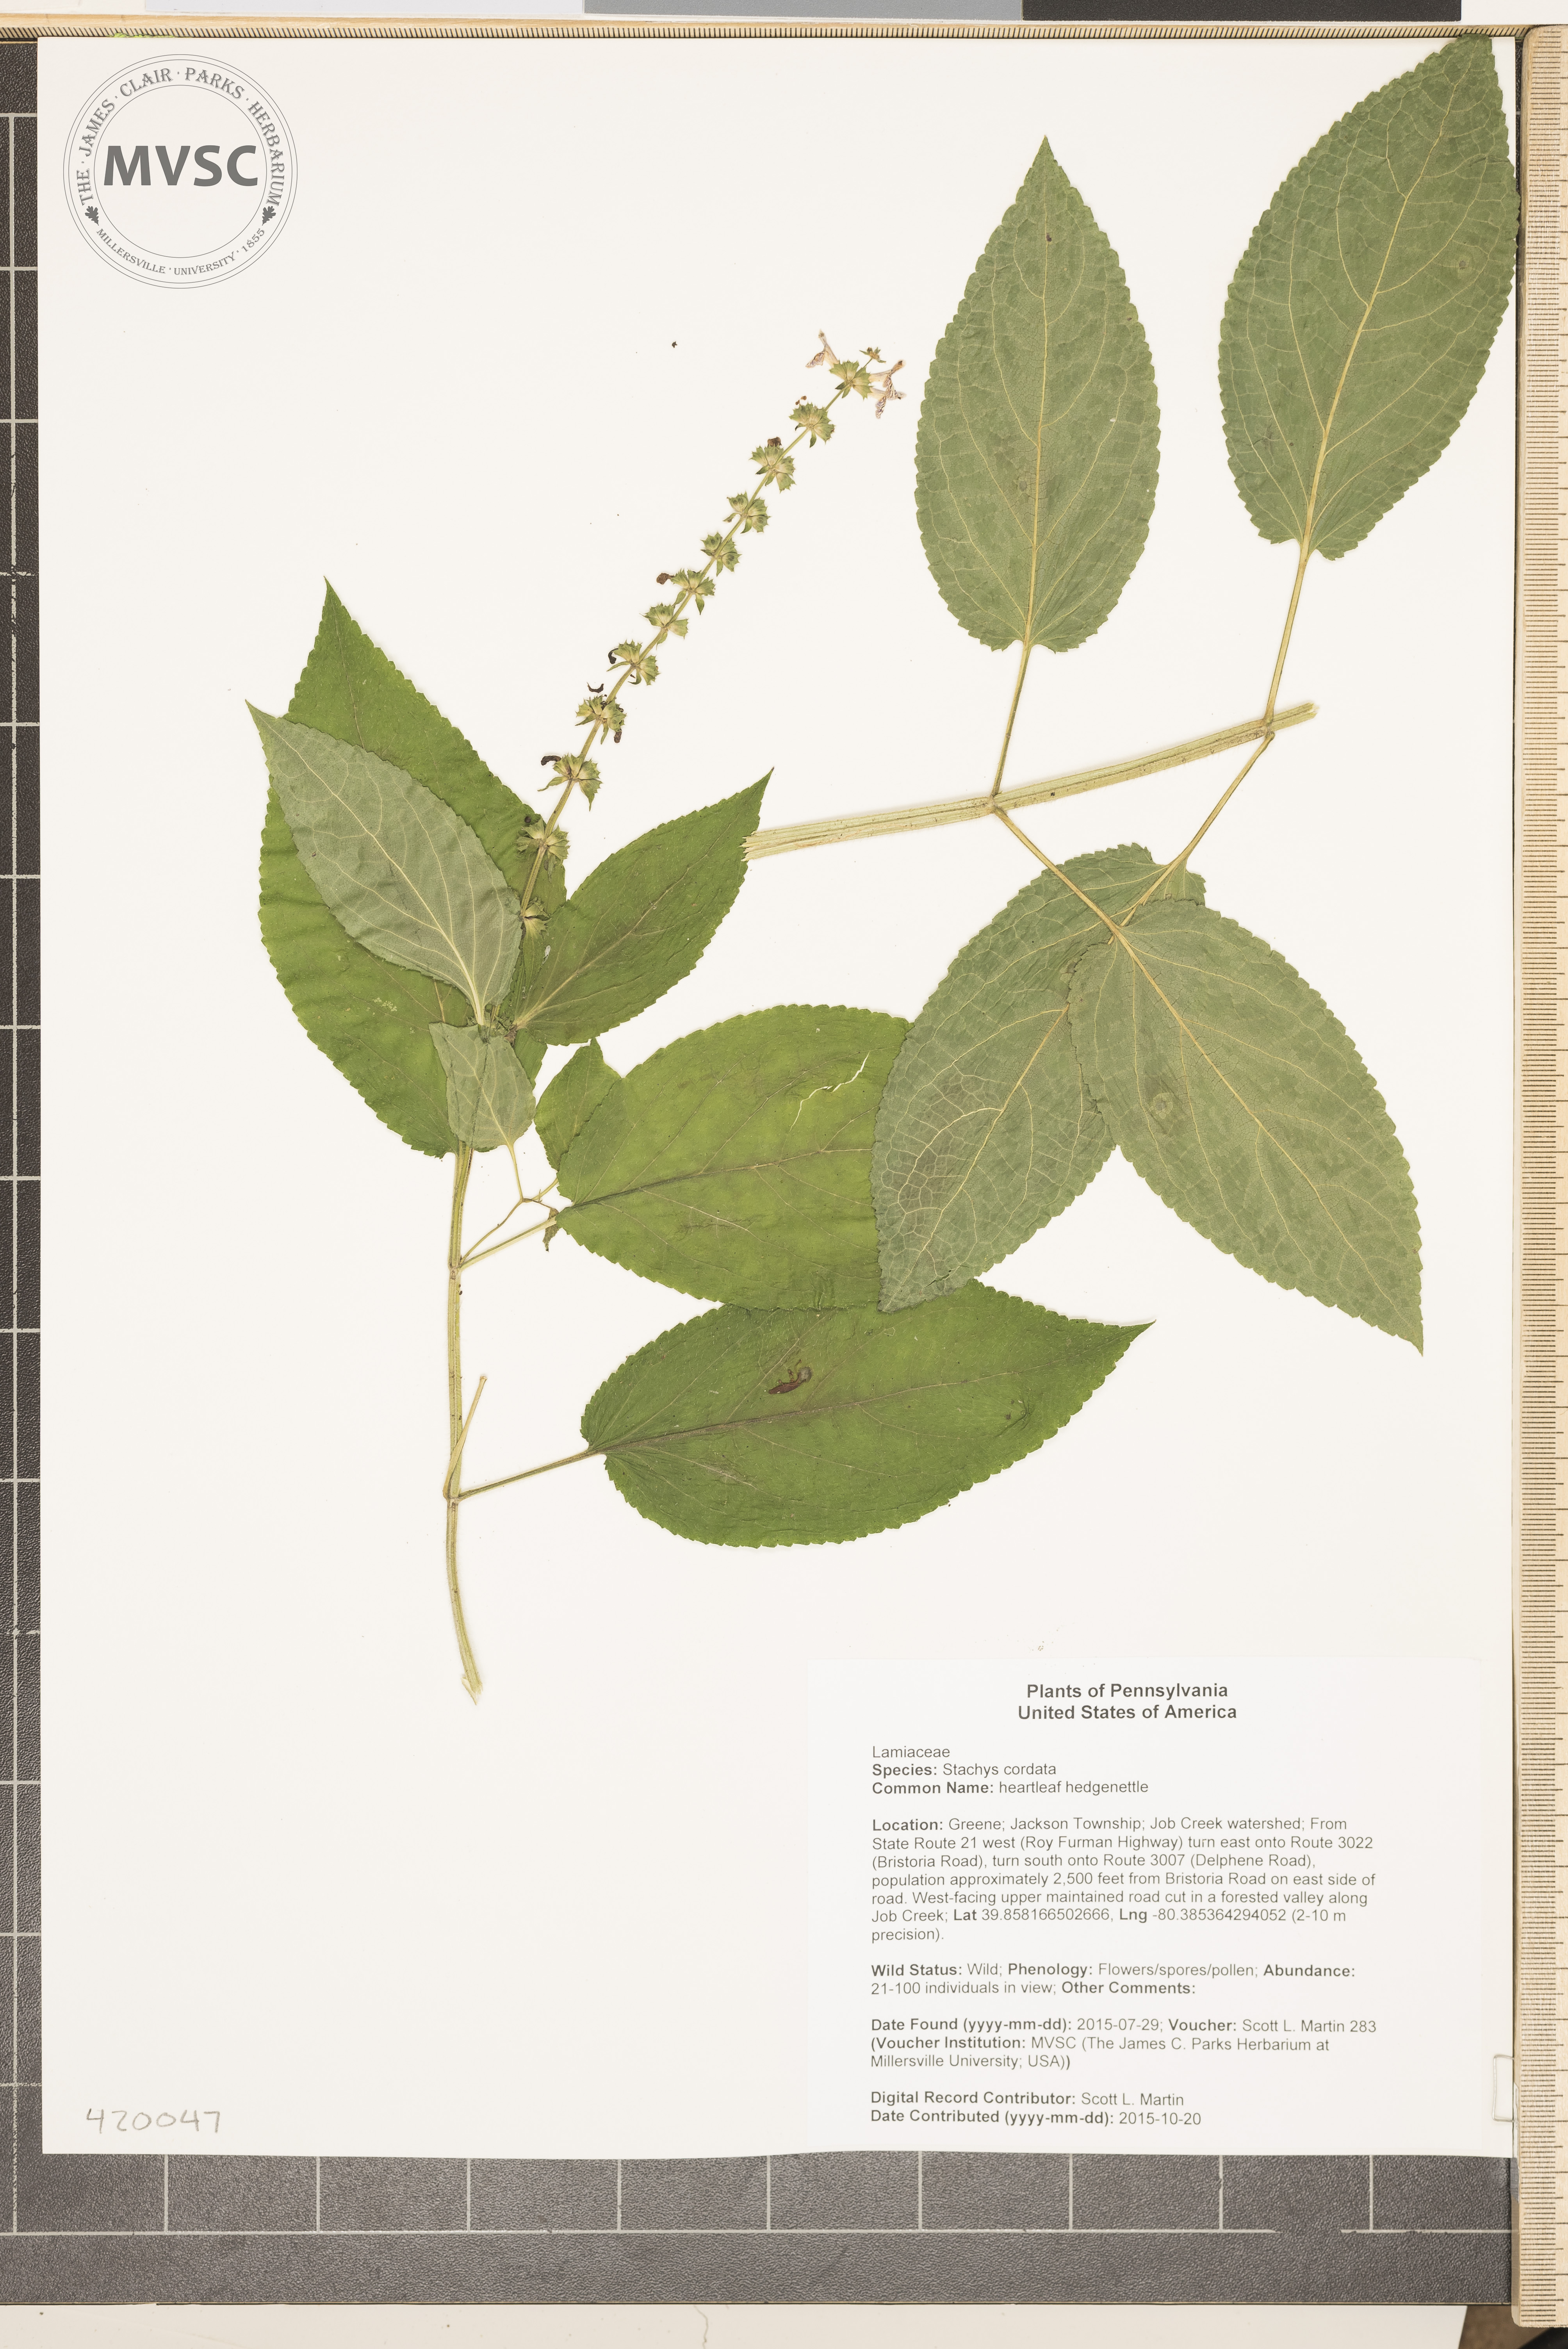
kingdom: Plantae
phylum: Tracheophyta
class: Magnoliopsida
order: Lamiales
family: Lamiaceae
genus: Stachys
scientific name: Stachys cordata
